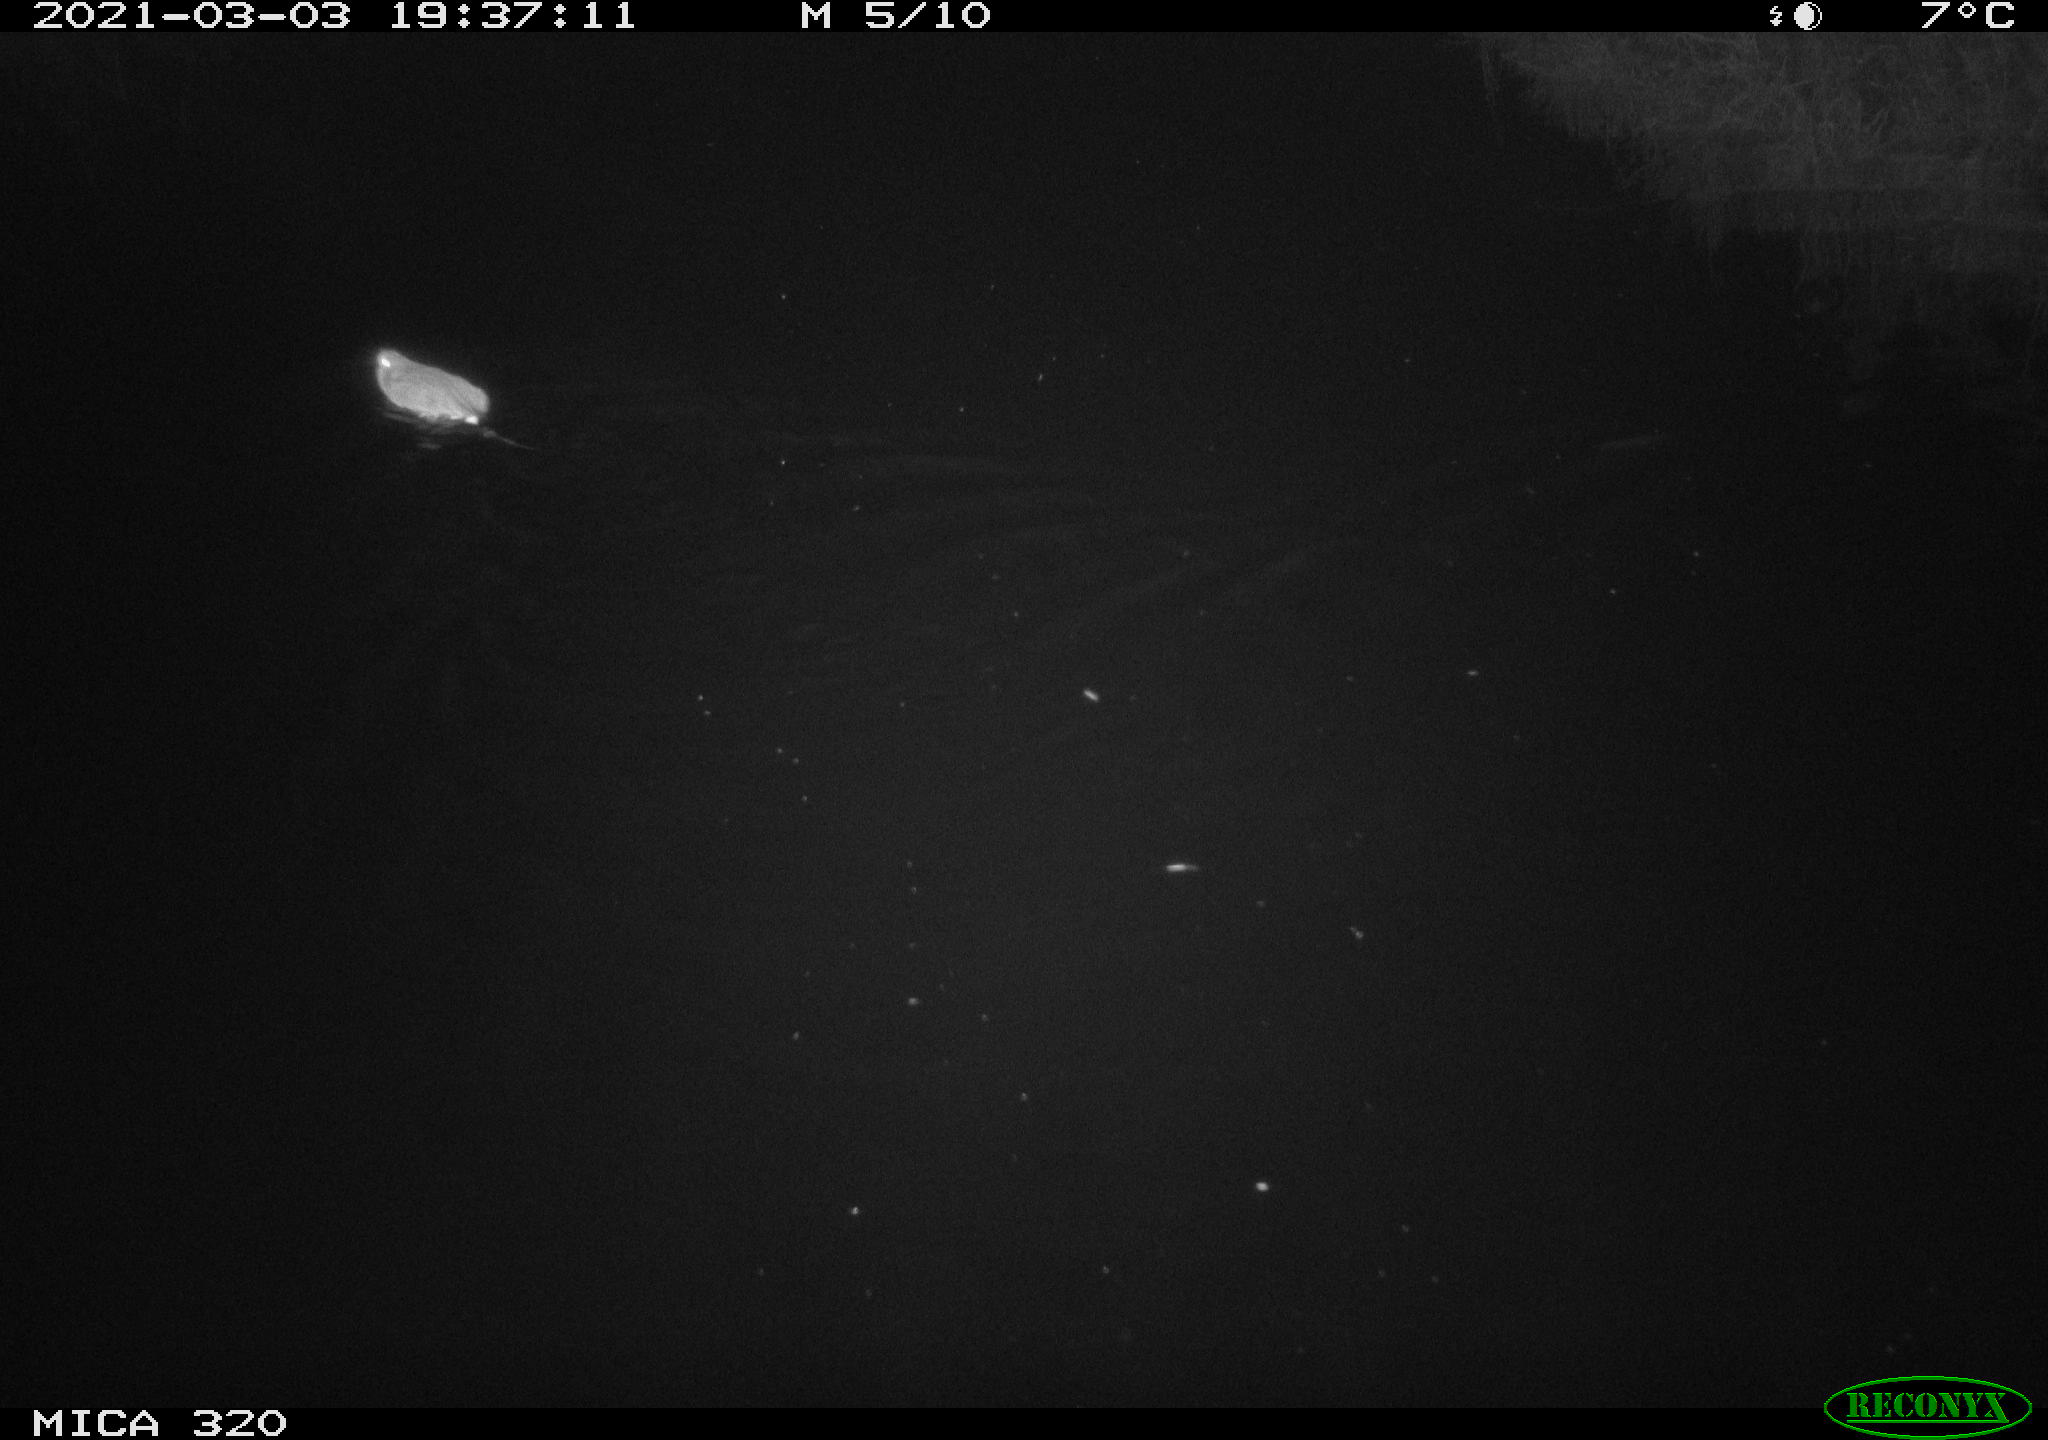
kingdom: Animalia
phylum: Chordata
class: Mammalia
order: Rodentia
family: Muridae
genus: Rattus
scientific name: Rattus norvegicus
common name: Brown rat
